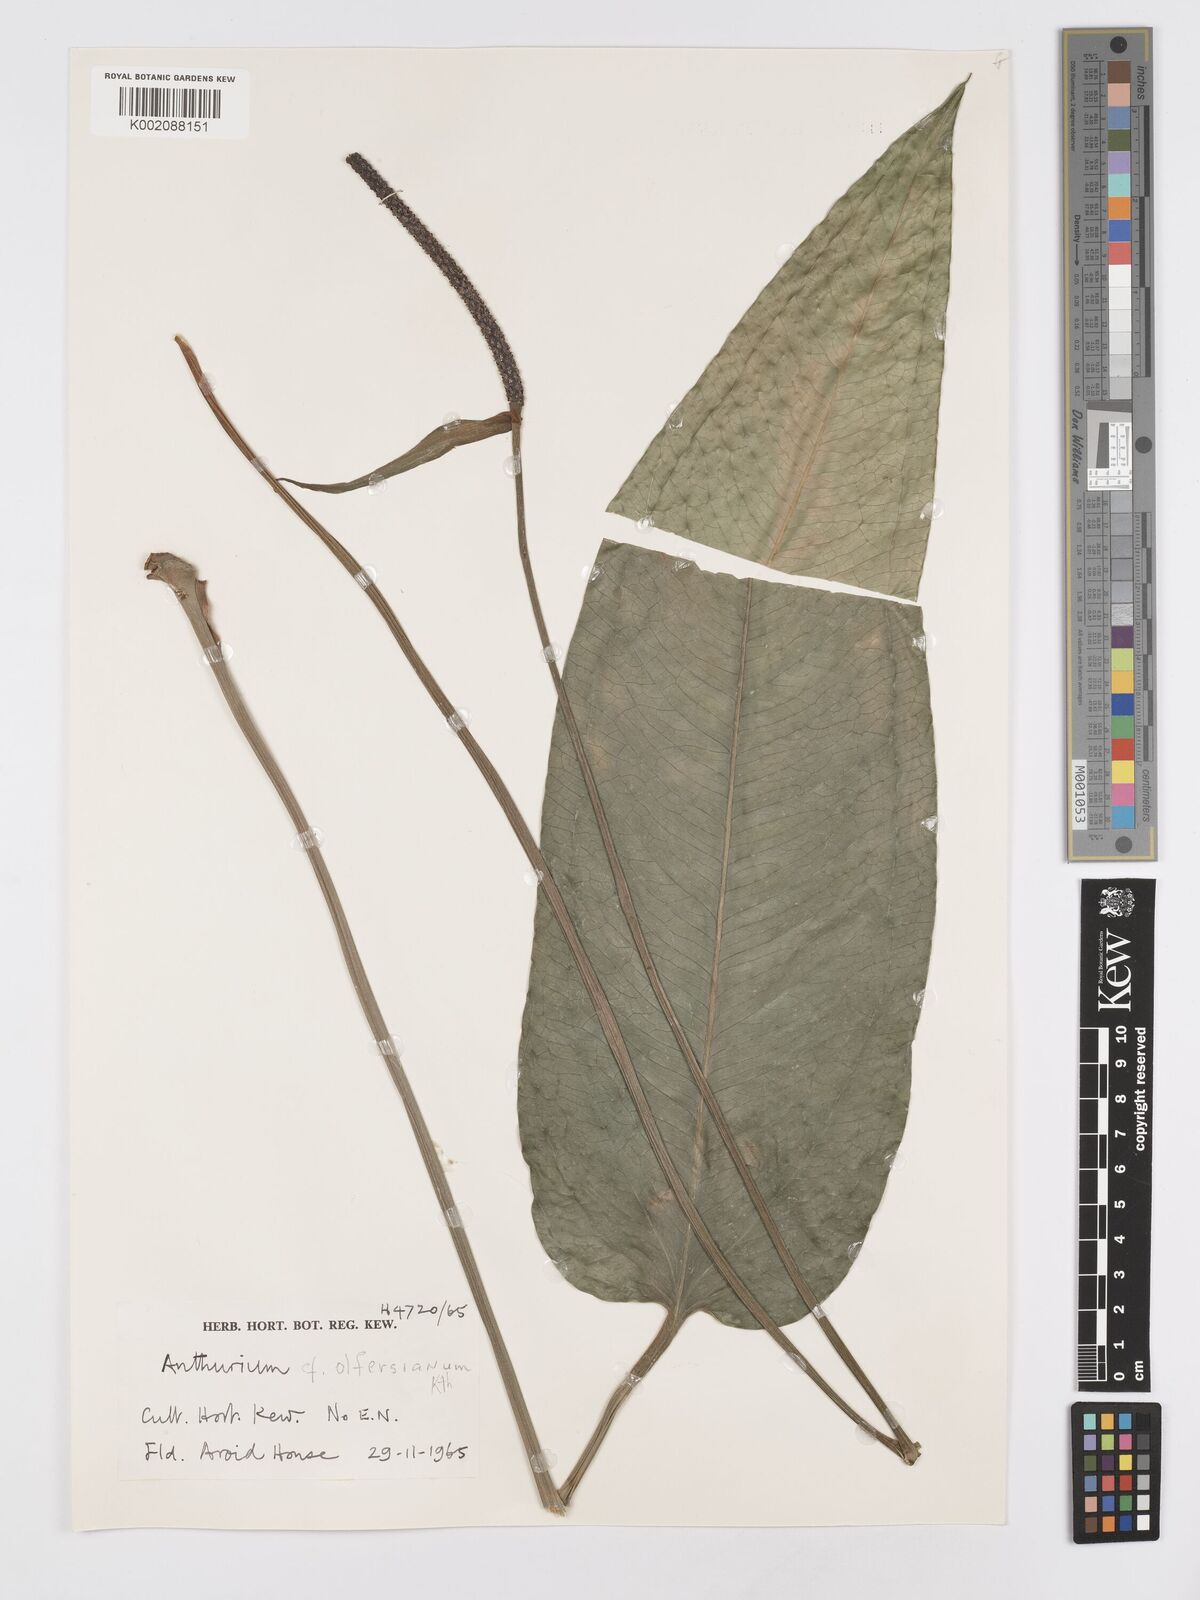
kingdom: Plantae
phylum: Tracheophyta
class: Liliopsida
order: Alismatales
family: Araceae
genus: Anthurium
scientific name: Anthurium
